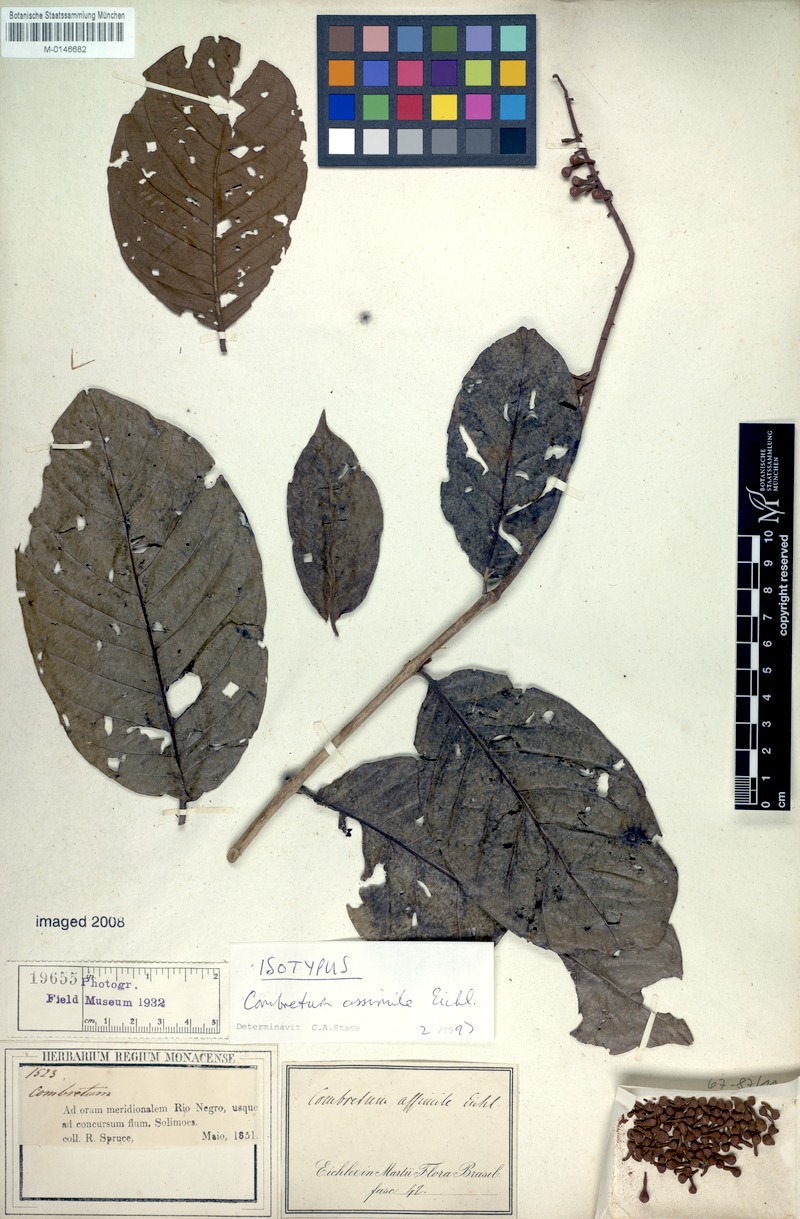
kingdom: Plantae
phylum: Tracheophyta
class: Magnoliopsida
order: Myrtales
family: Combretaceae
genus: Combretum
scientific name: Combretum assimile
